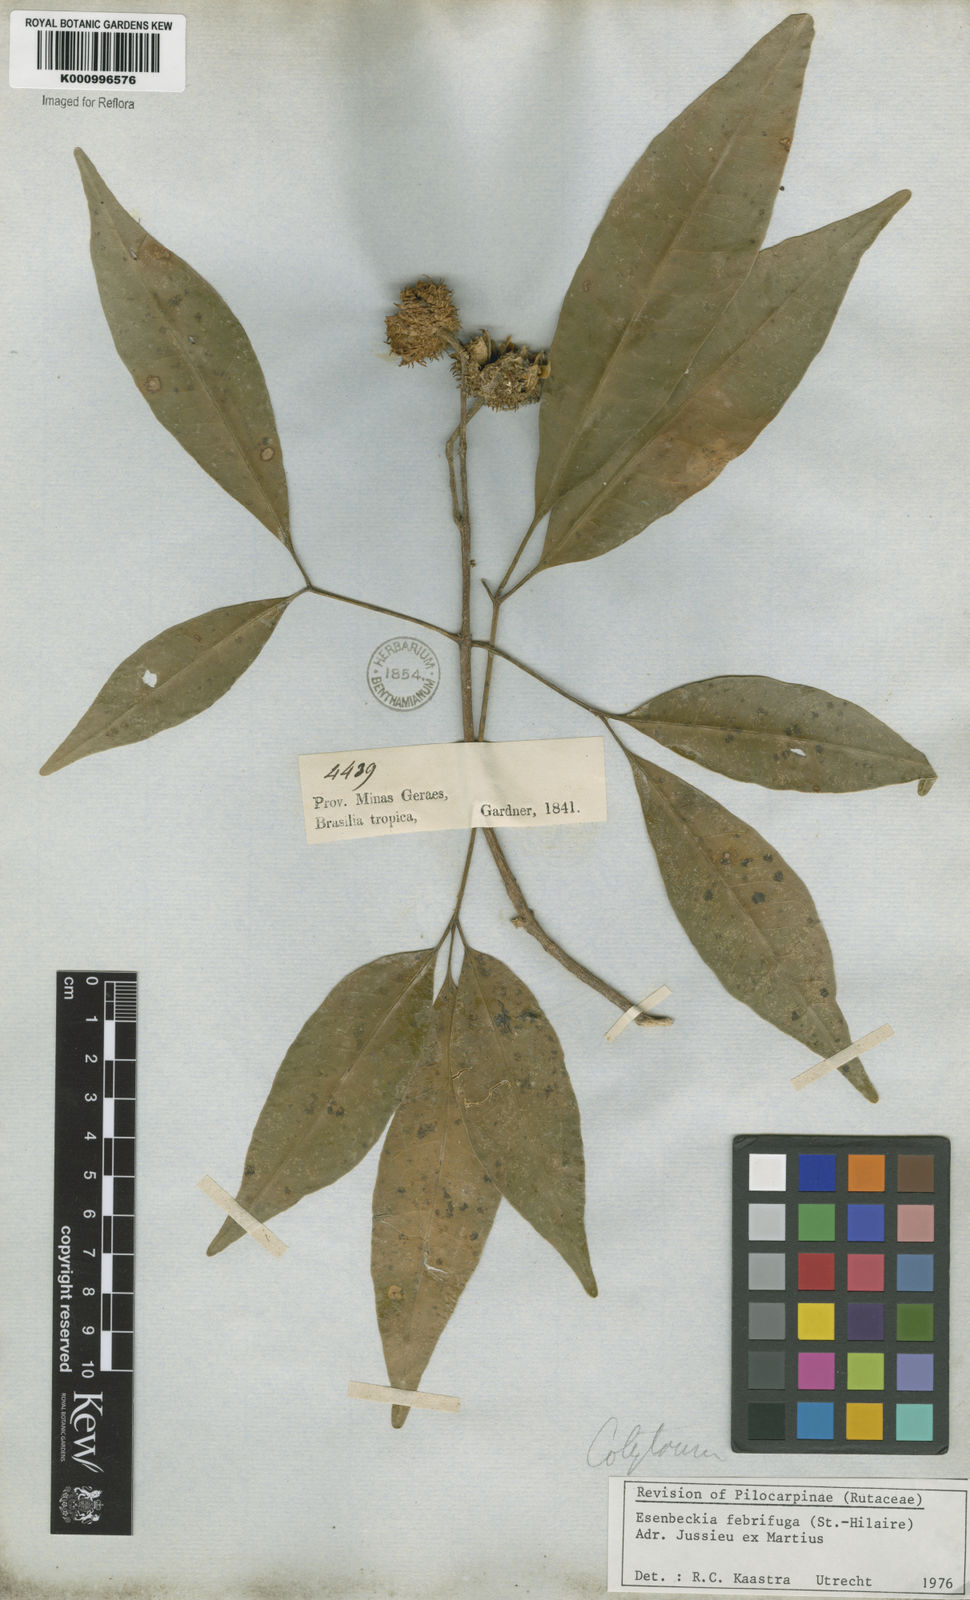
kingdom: Plantae
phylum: Tracheophyta
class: Magnoliopsida
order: Sapindales
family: Rutaceae
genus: Esenbeckia
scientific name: Esenbeckia febrifuga
